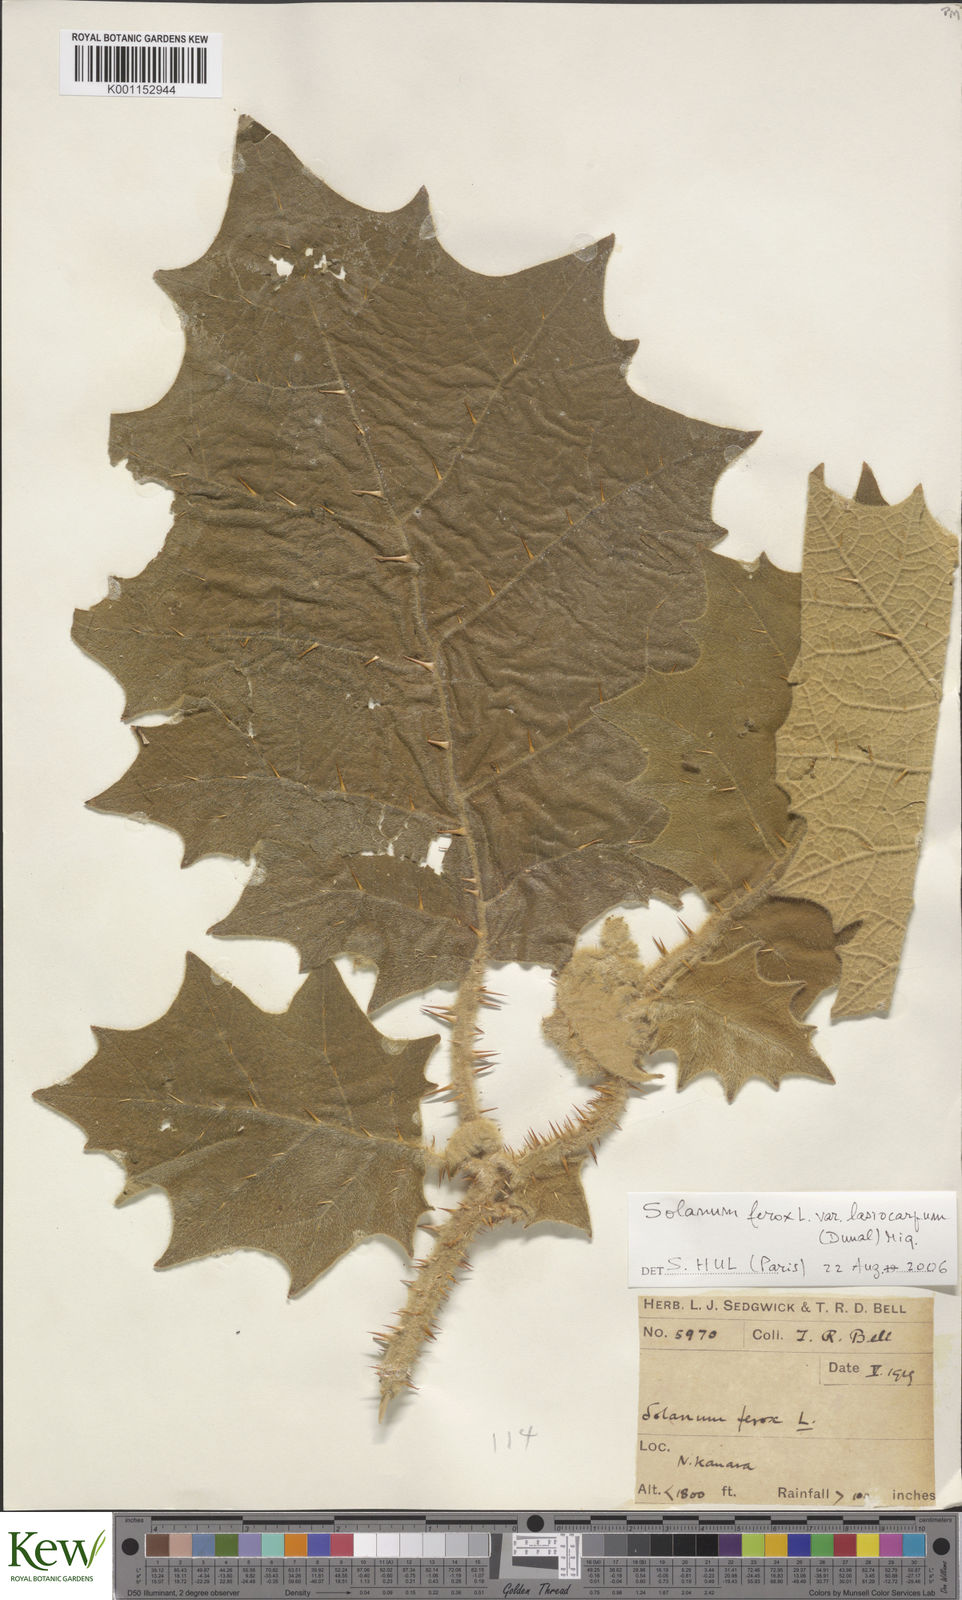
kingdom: Plantae
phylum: Tracheophyta
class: Magnoliopsida
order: Solanales
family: Solanaceae
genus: Solanum
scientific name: Solanum
